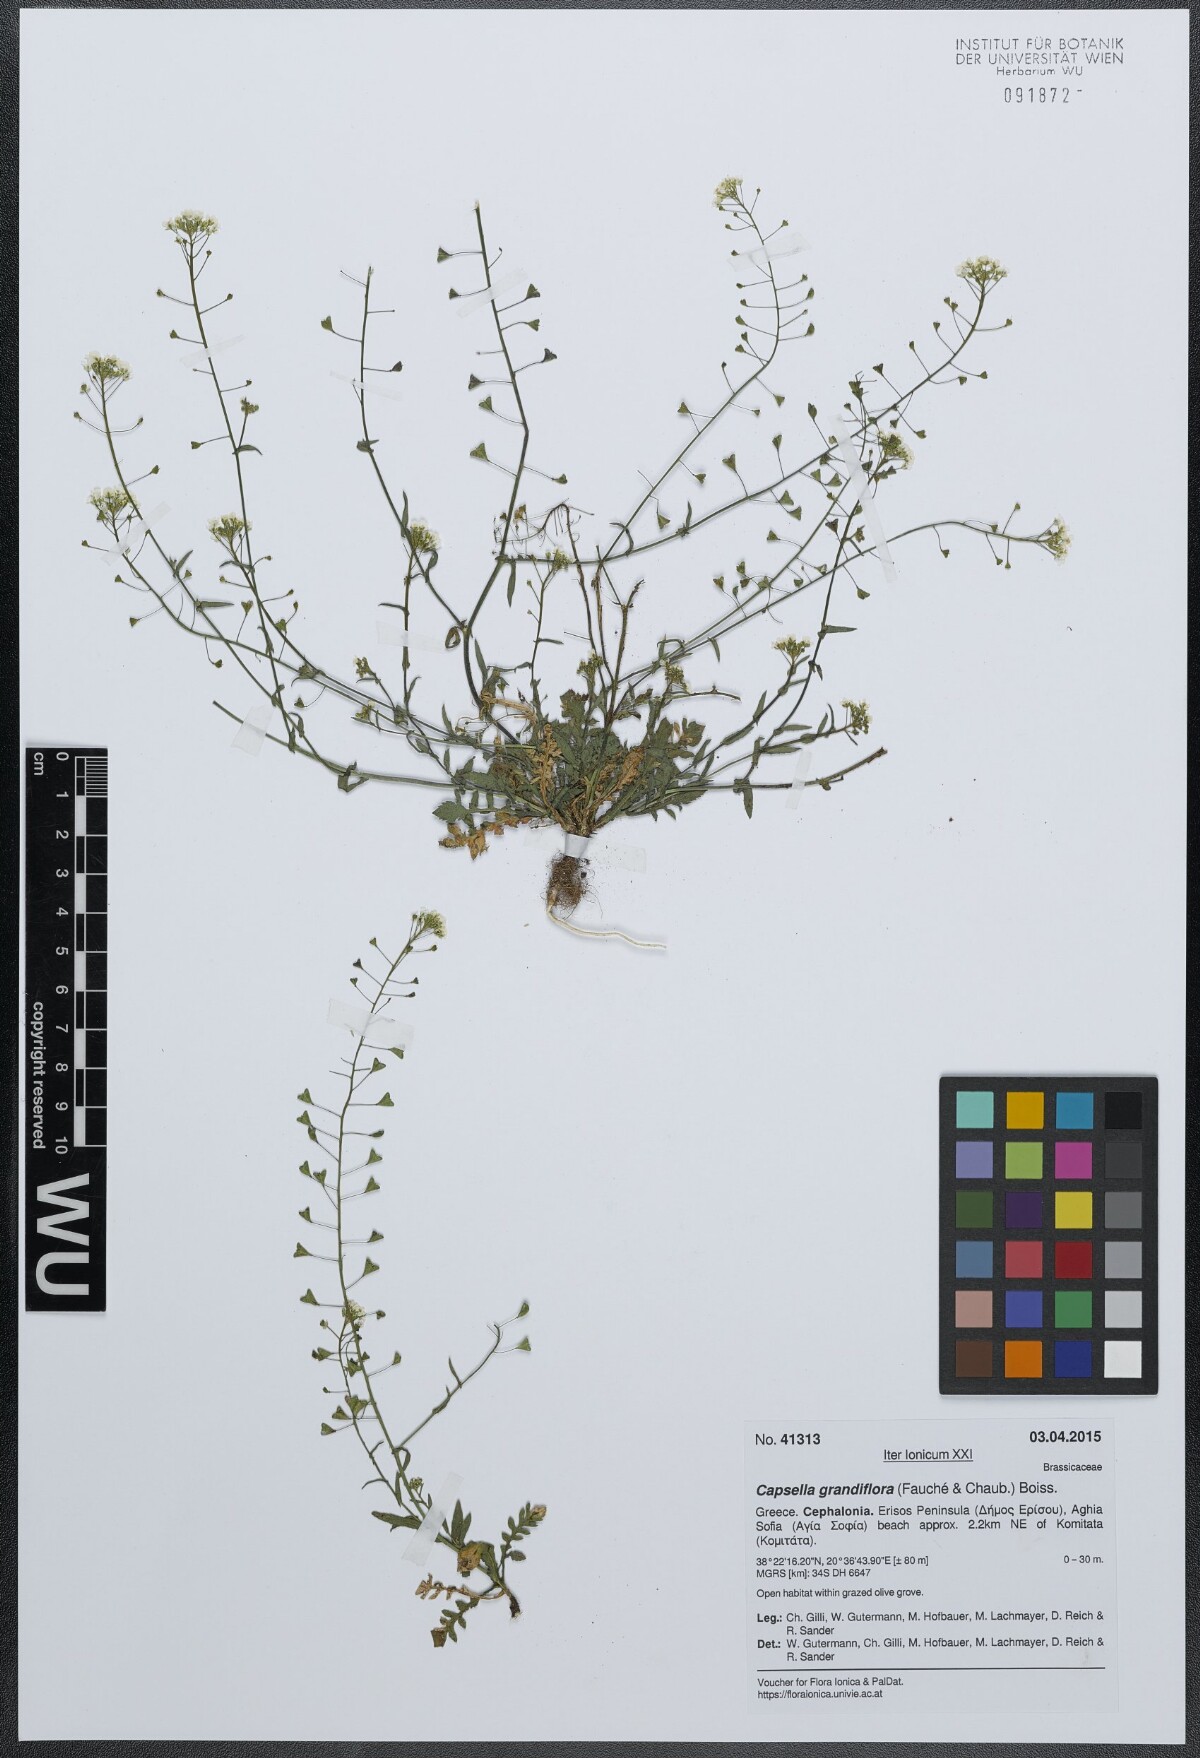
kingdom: Plantae
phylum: Tracheophyta
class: Magnoliopsida
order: Brassicales
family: Brassicaceae
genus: Capsella
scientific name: Capsella grandiflora
